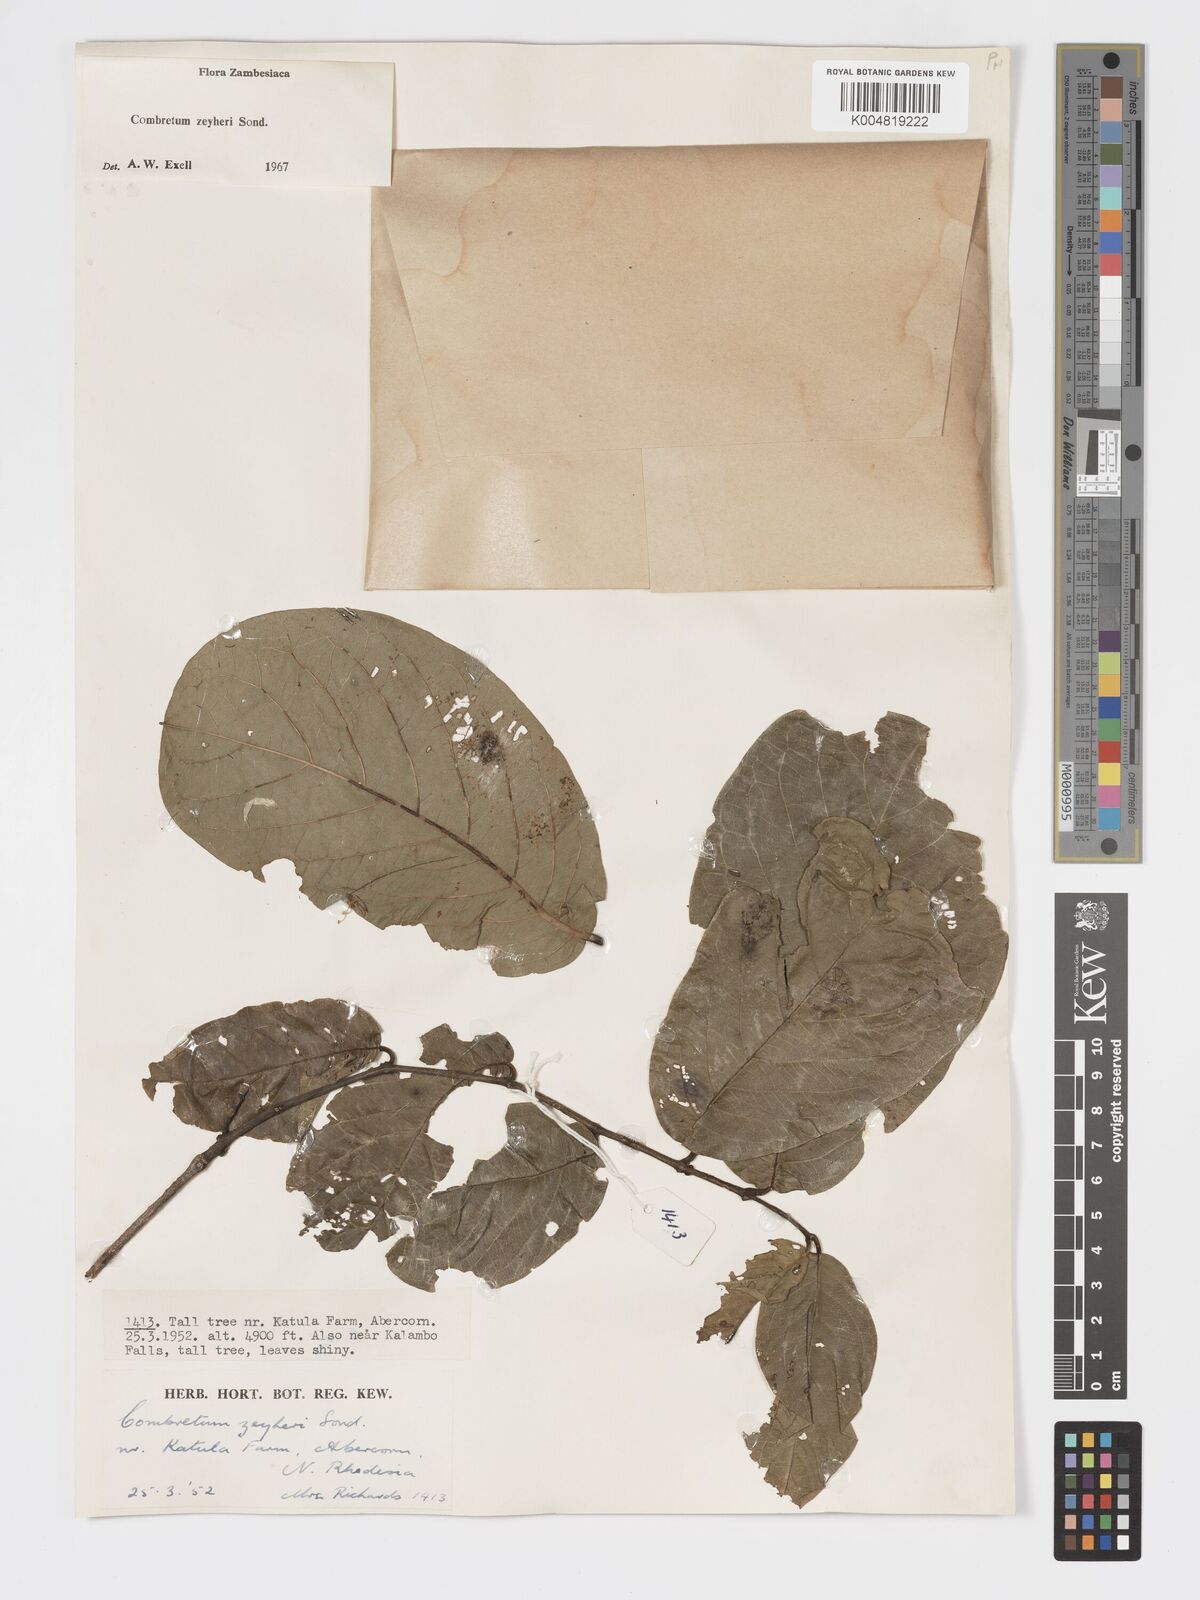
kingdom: Plantae
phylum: Tracheophyta
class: Magnoliopsida
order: Myrtales
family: Combretaceae
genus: Combretum
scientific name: Combretum zeyheri
